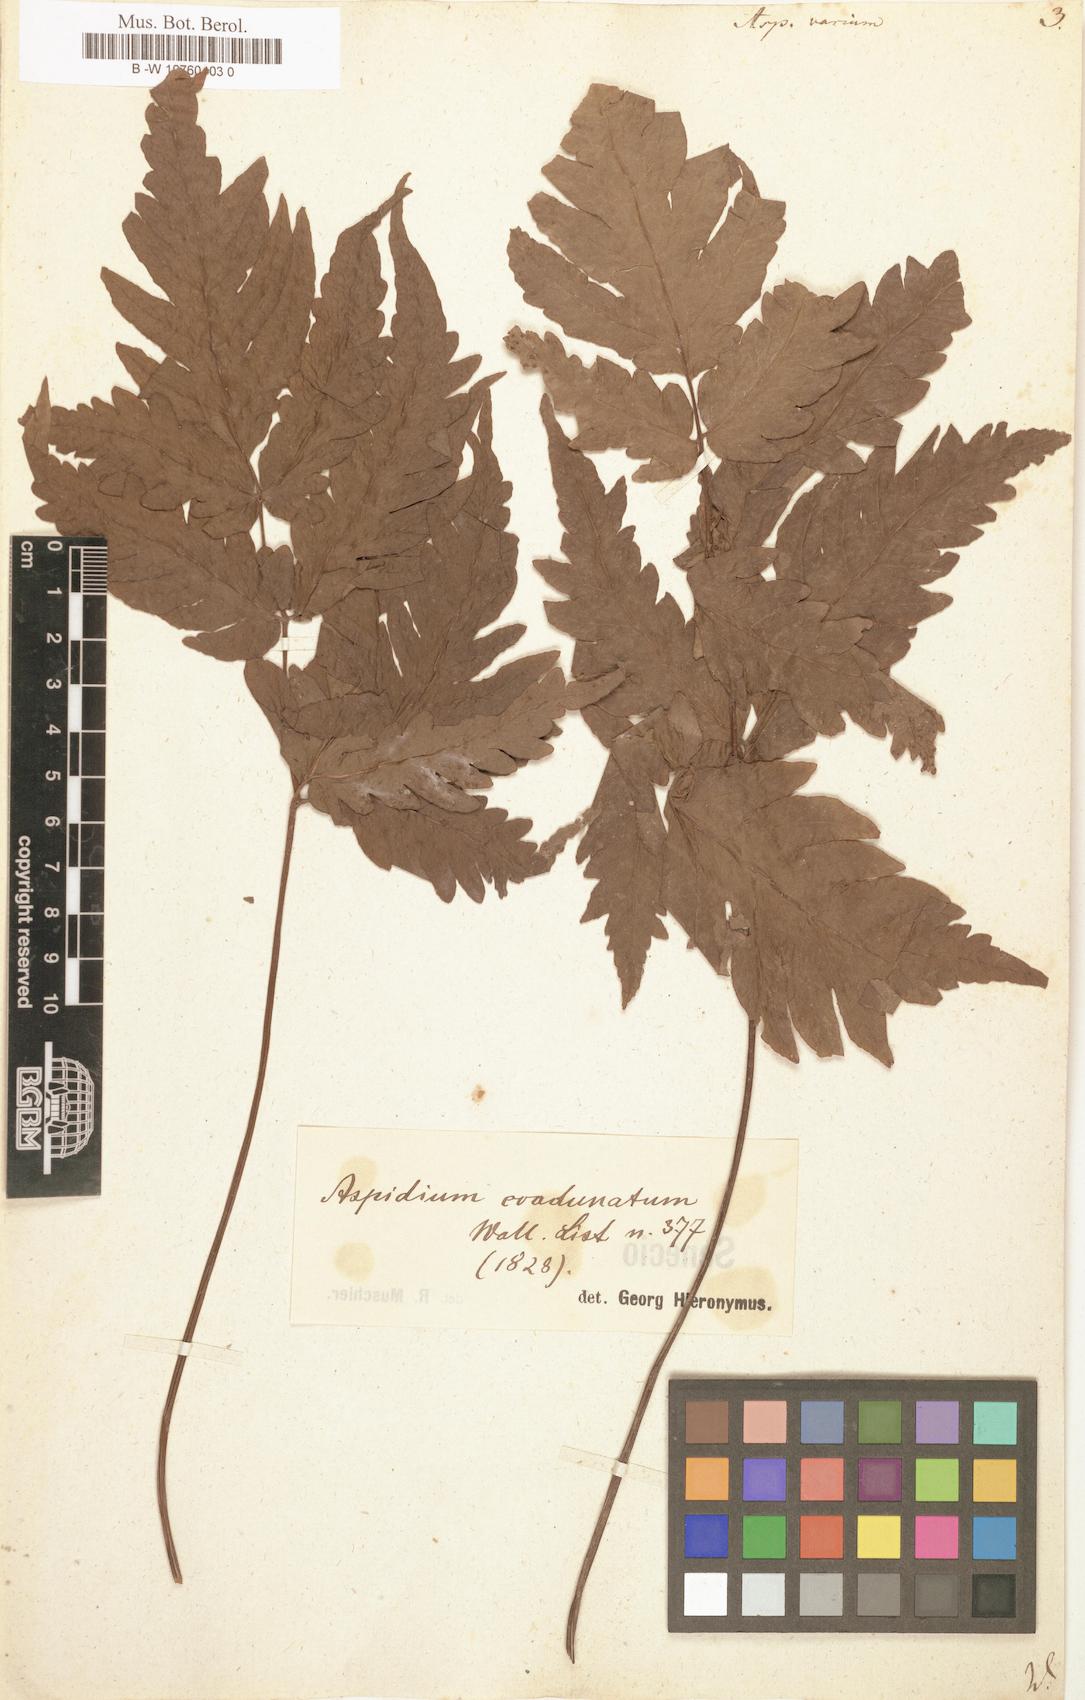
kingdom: Plantae
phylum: Tracheophyta
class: Polypodiopsida
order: Polypodiales
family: Dryopteridaceae
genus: Dryopteris
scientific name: Dryopteris varia
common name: Japanese holly fern
